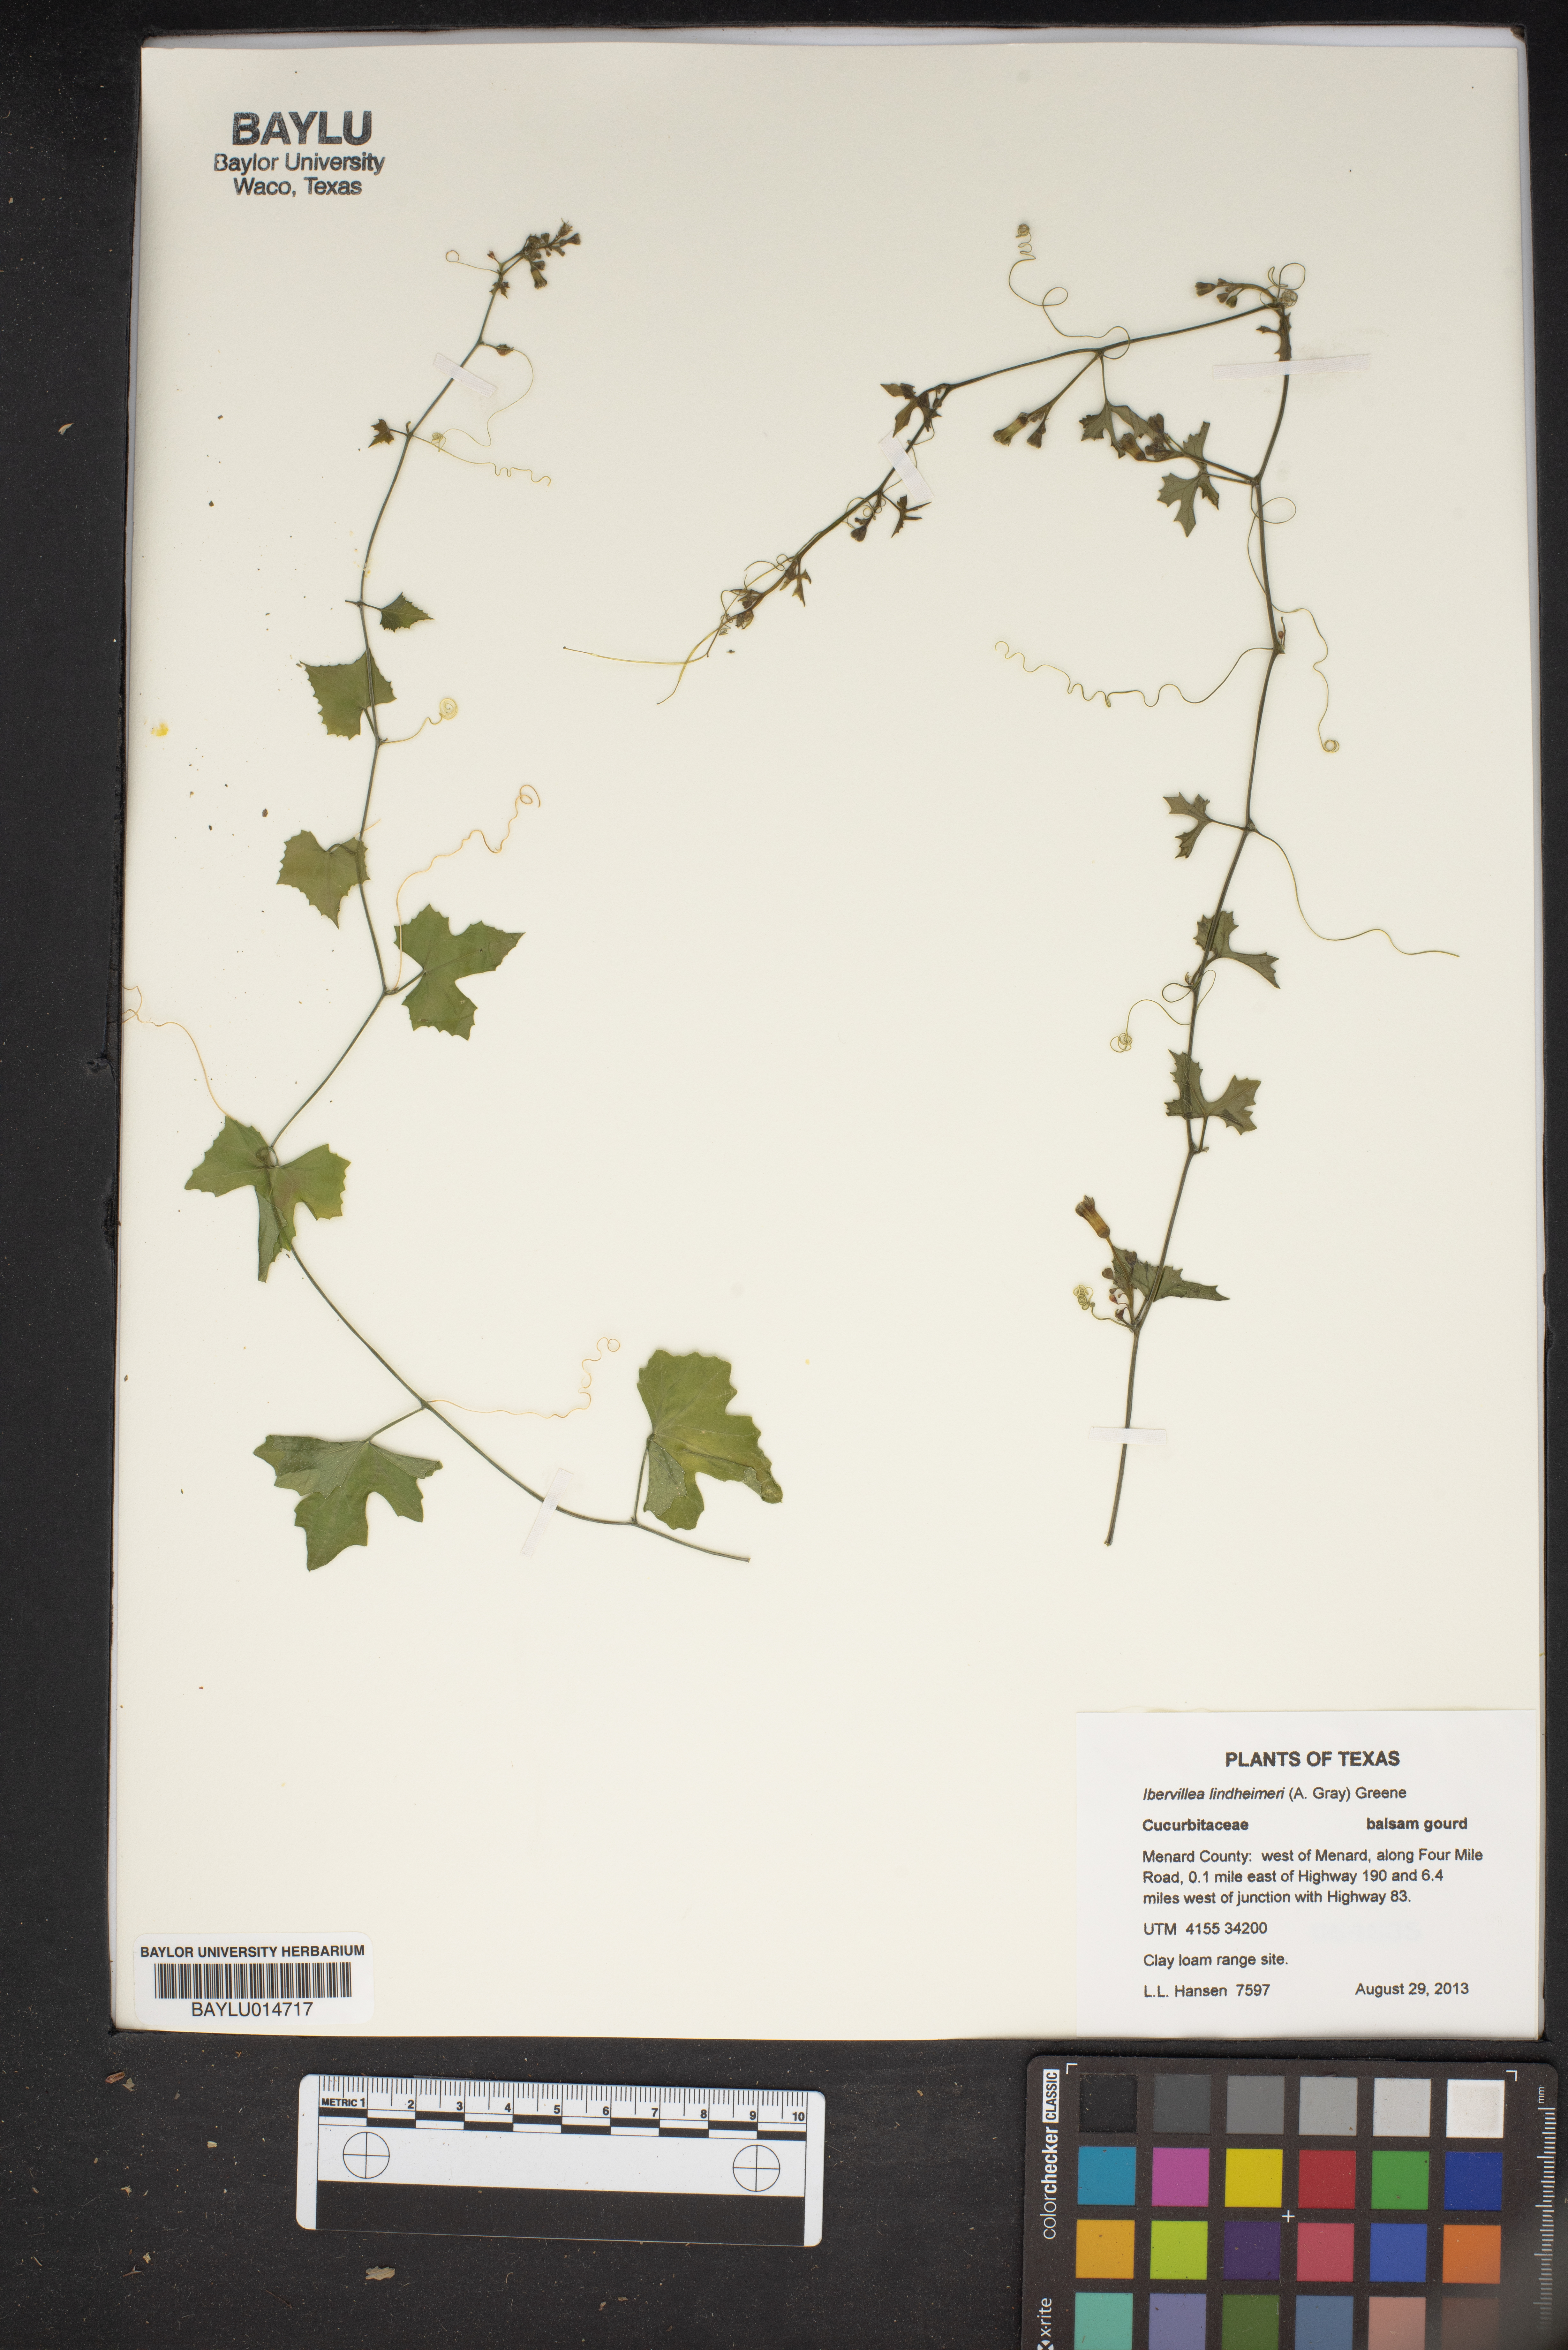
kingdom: Plantae
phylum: Tracheophyta
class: Magnoliopsida
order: Cucurbitales
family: Cucurbitaceae
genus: Ibervillea
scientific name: Ibervillea lindheimeri
